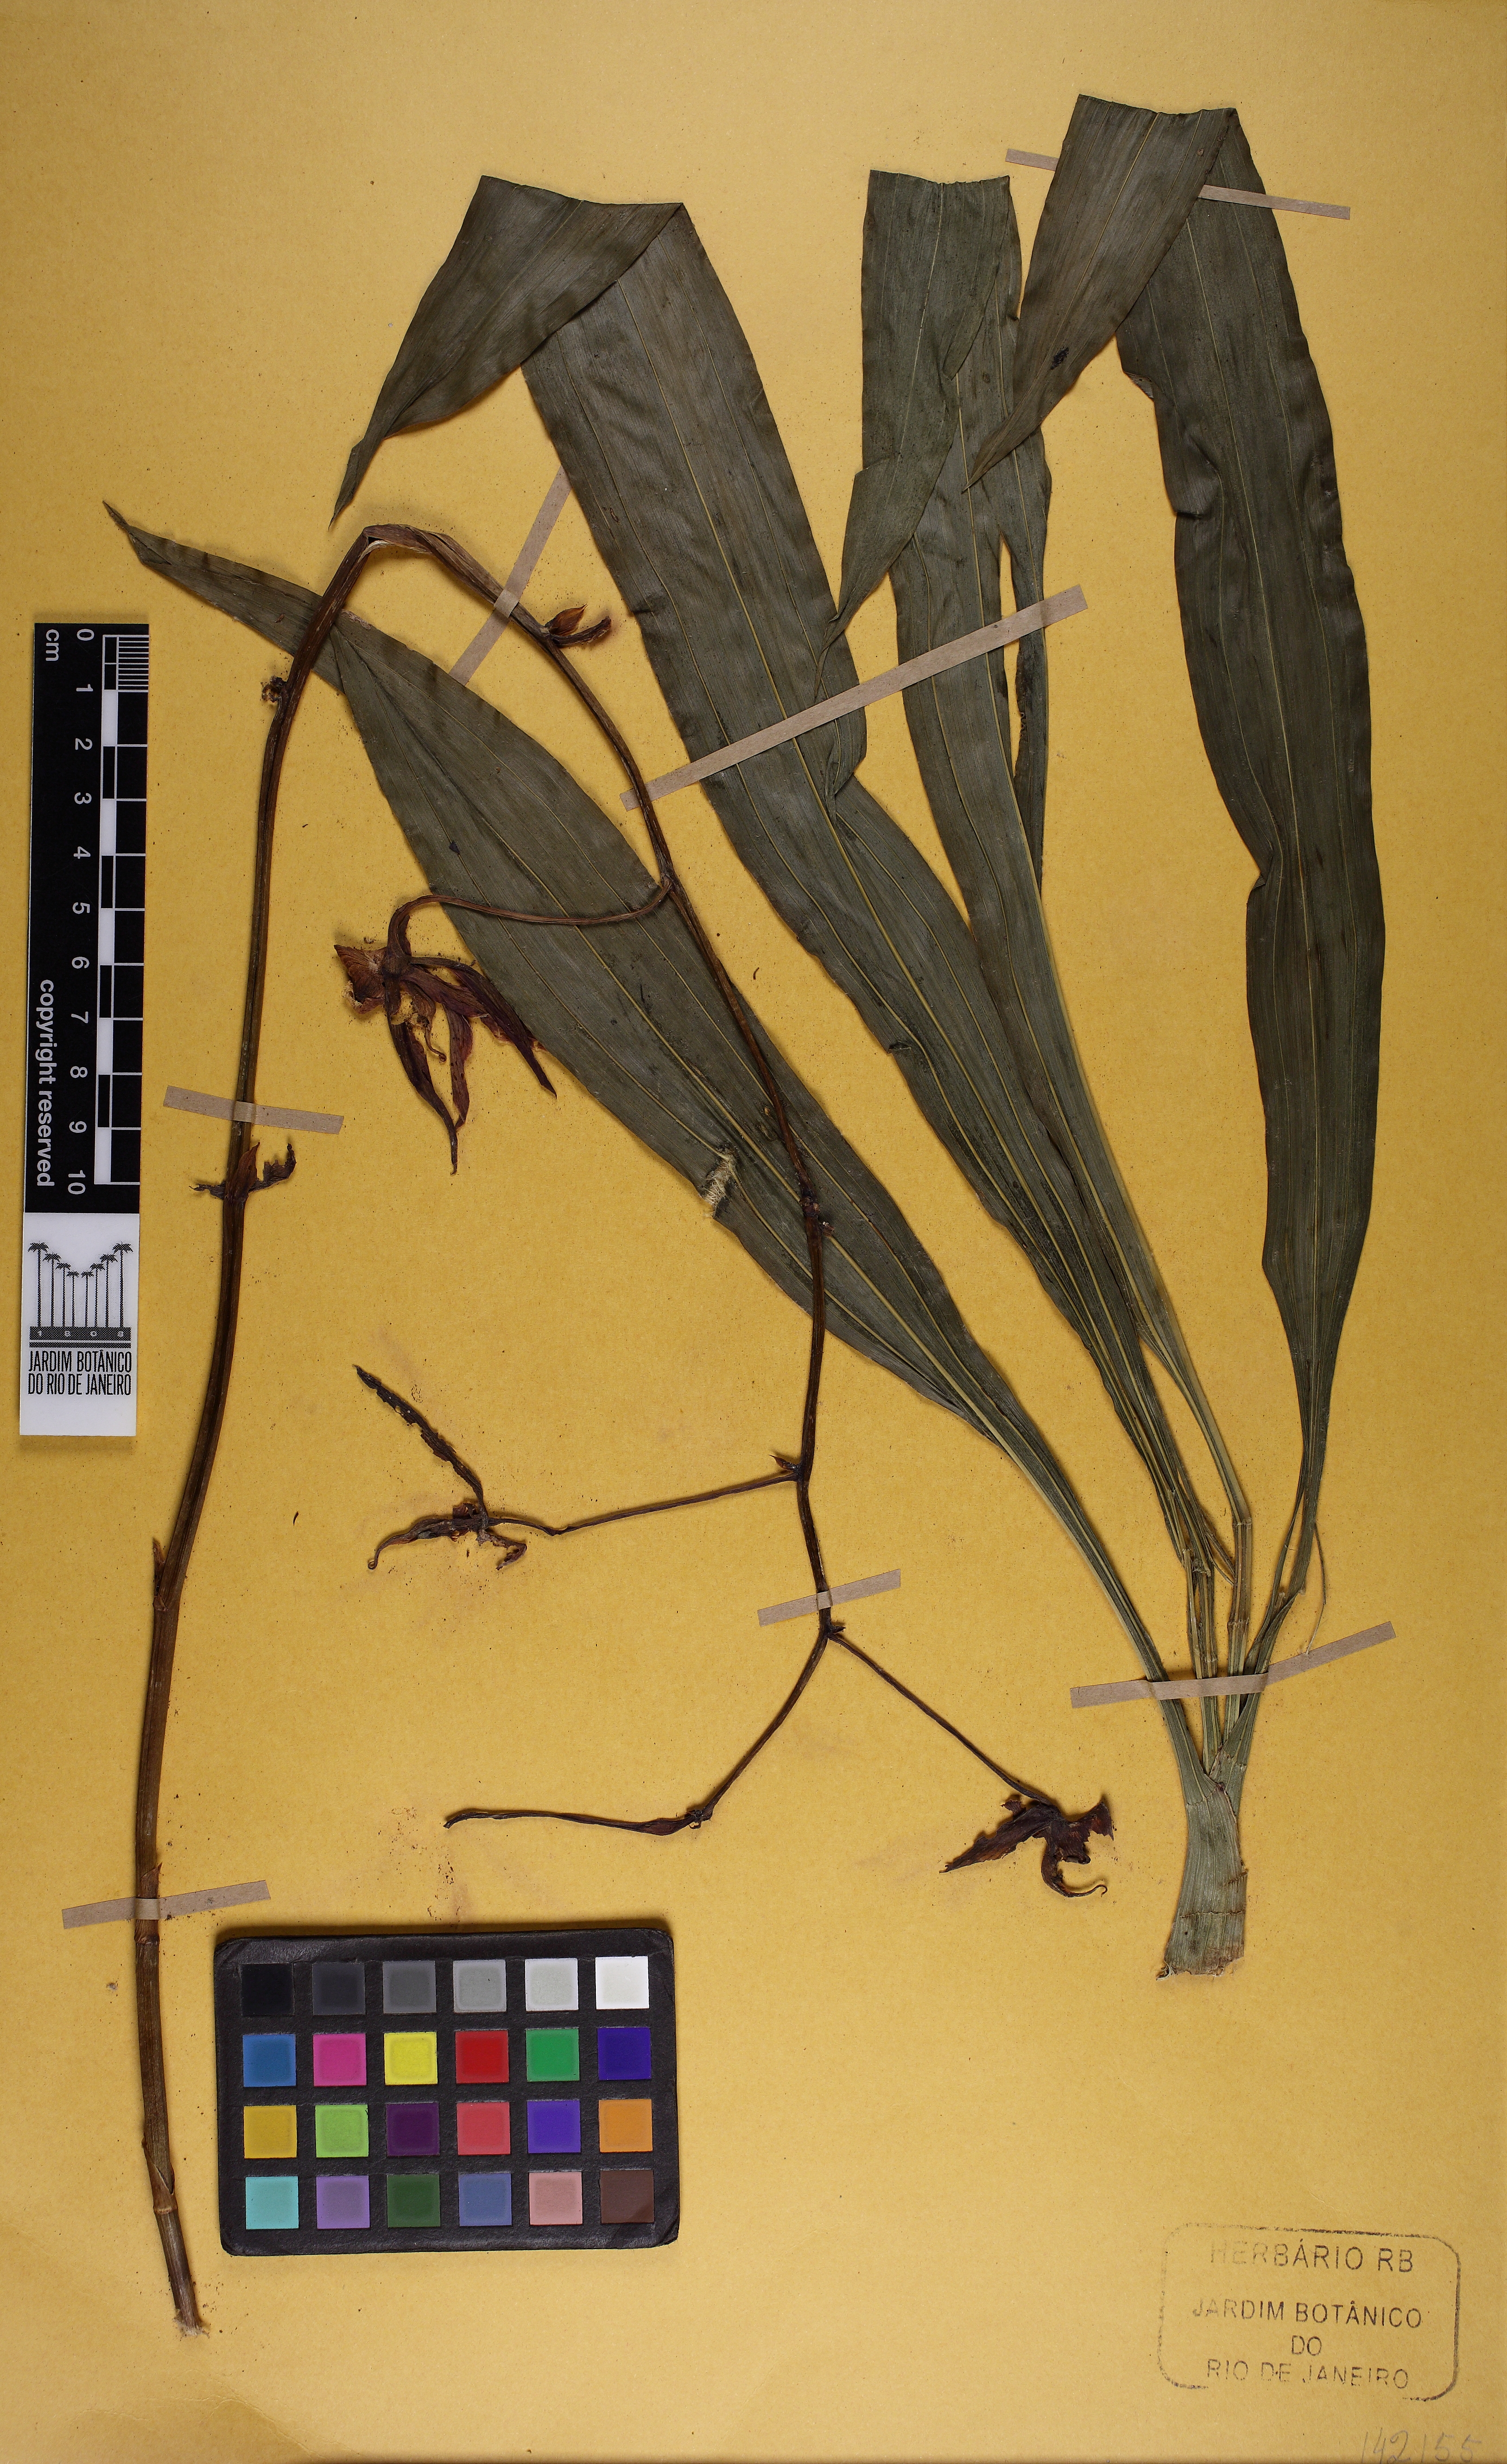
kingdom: Plantae
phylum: Tracheophyta
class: Liliopsida
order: Asparagales
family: Orchidaceae
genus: Catasetum
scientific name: Catasetum gnomus
